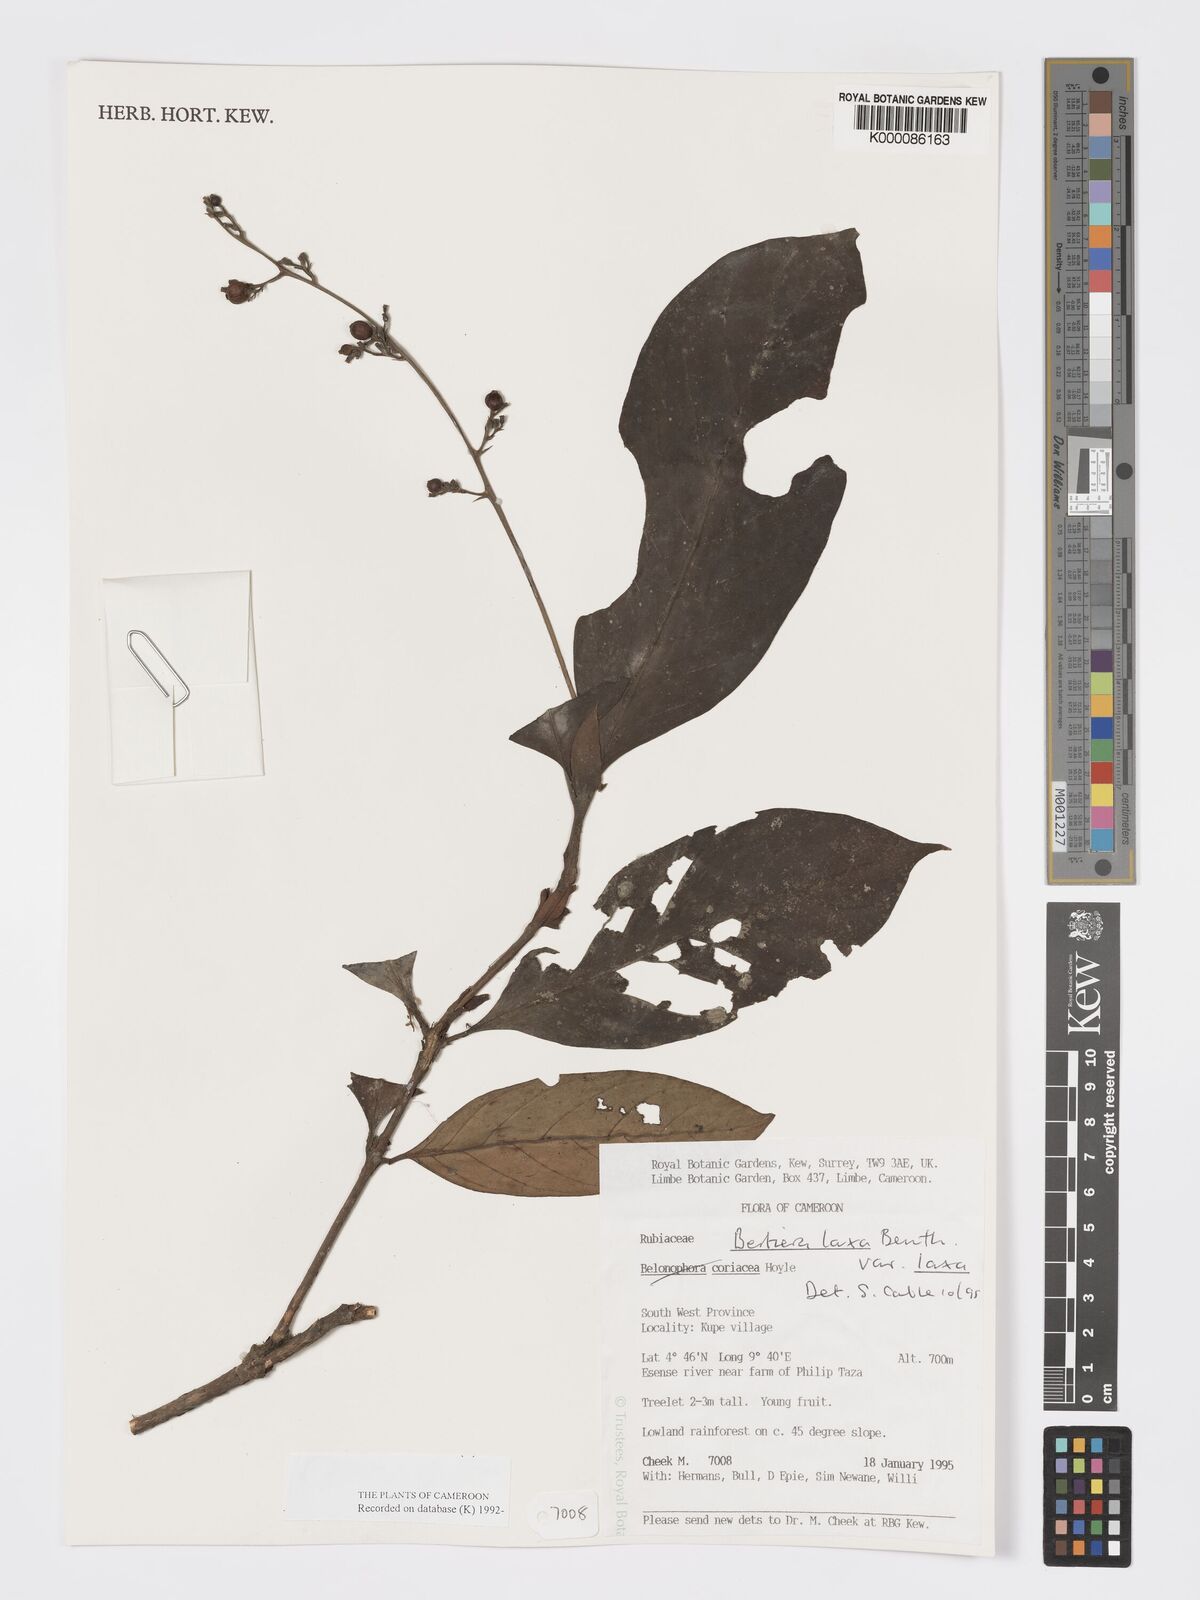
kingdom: Plantae
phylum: Tracheophyta
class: Magnoliopsida
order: Gentianales
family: Rubiaceae
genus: Bertiera
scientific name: Bertiera laxa
